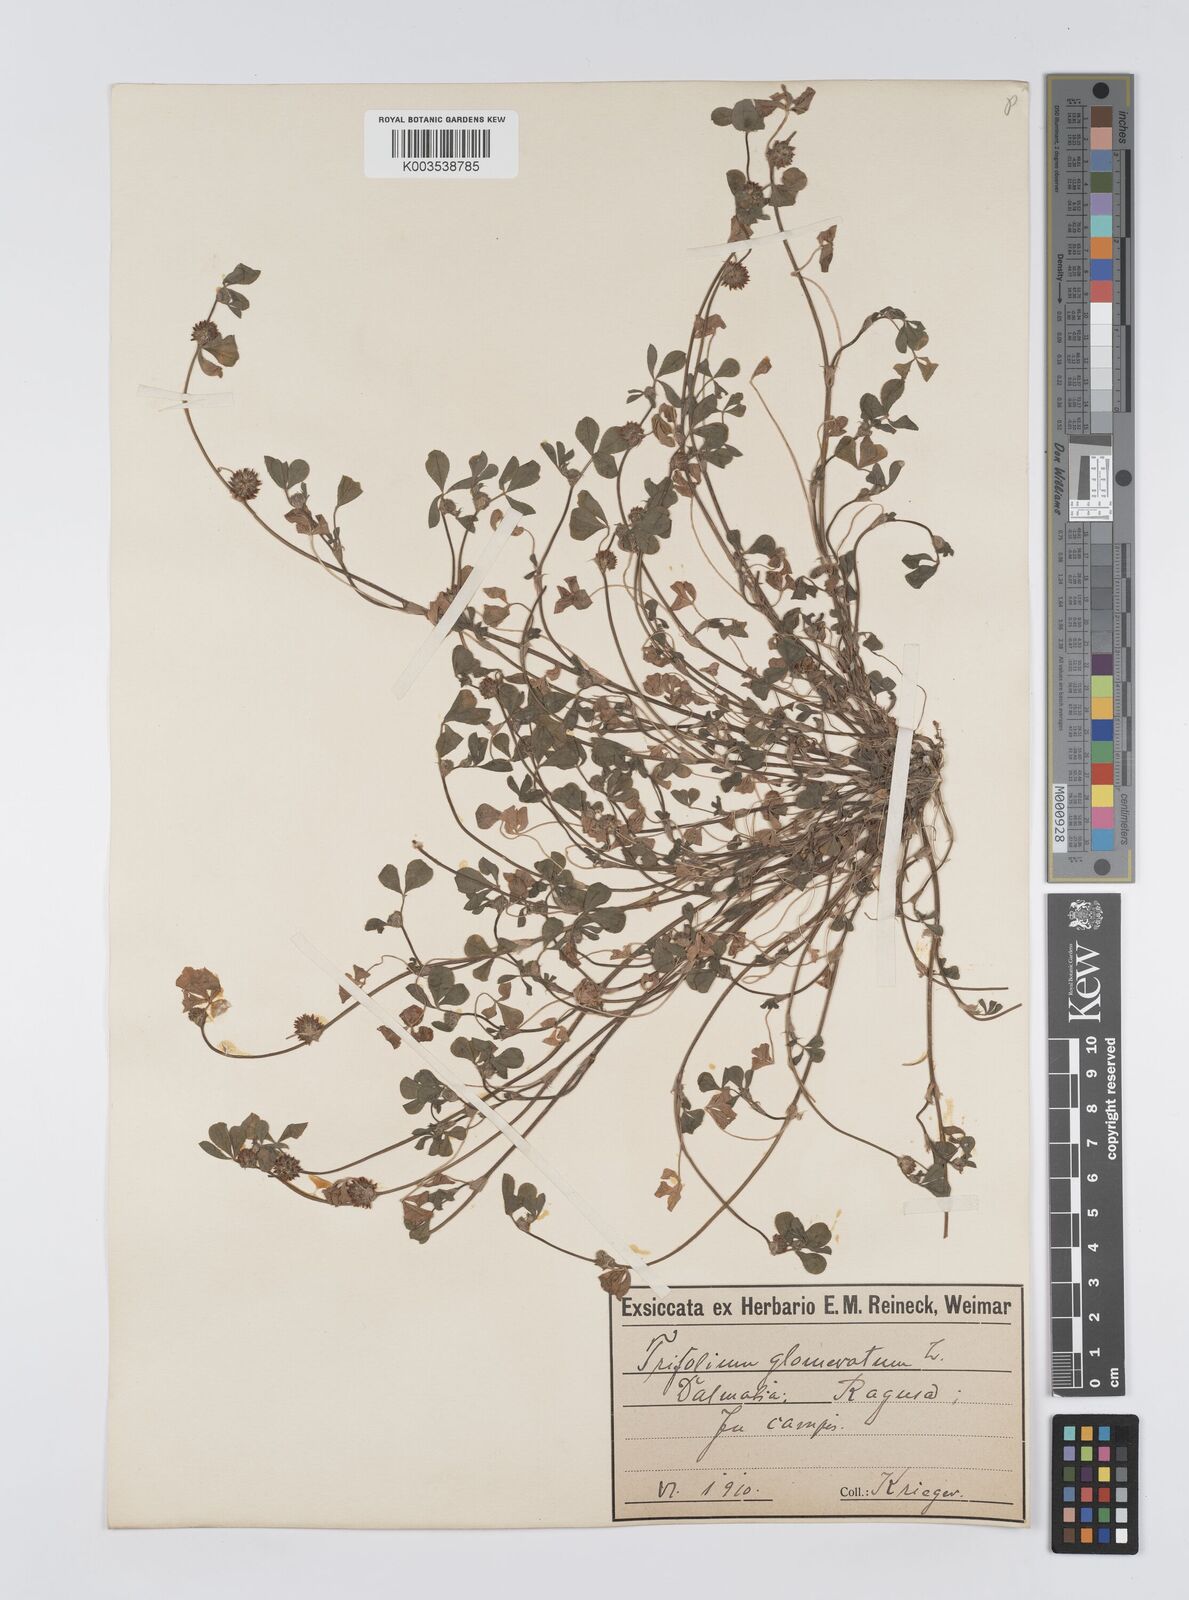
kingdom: Plantae
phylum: Tracheophyta
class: Magnoliopsida
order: Fabales
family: Fabaceae
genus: Trifolium
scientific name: Trifolium glomeratum
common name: Clustered clover
